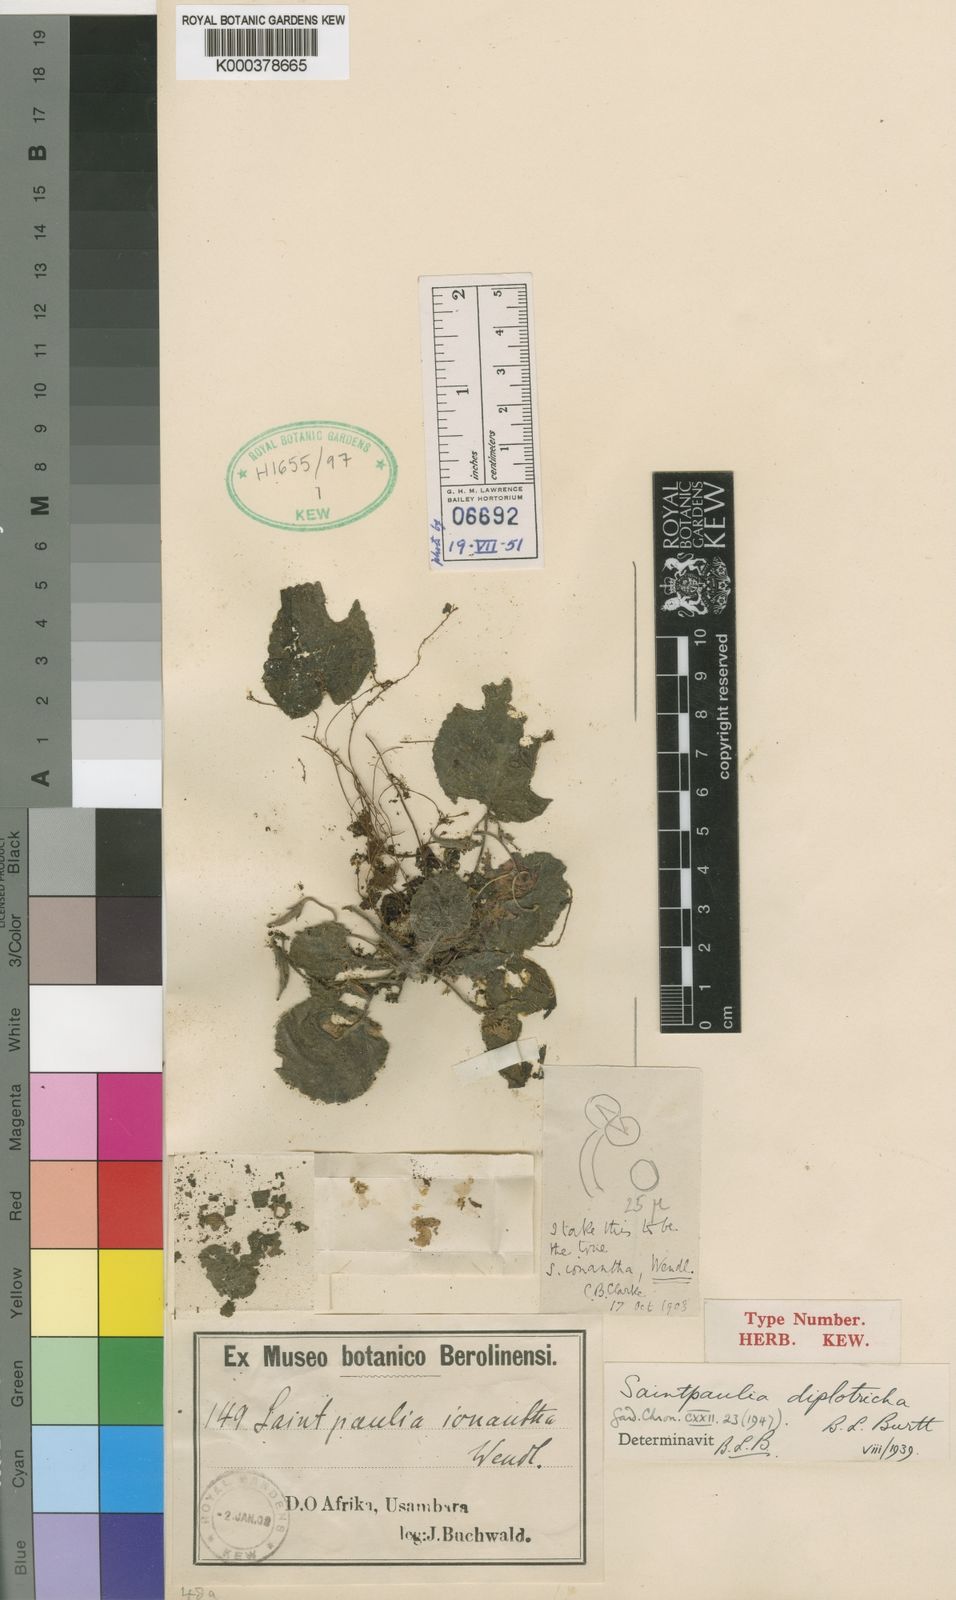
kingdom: Plantae
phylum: Tracheophyta
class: Magnoliopsida
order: Lamiales
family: Gesneriaceae
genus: Streptocarpus
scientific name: Streptocarpus ionanthus
